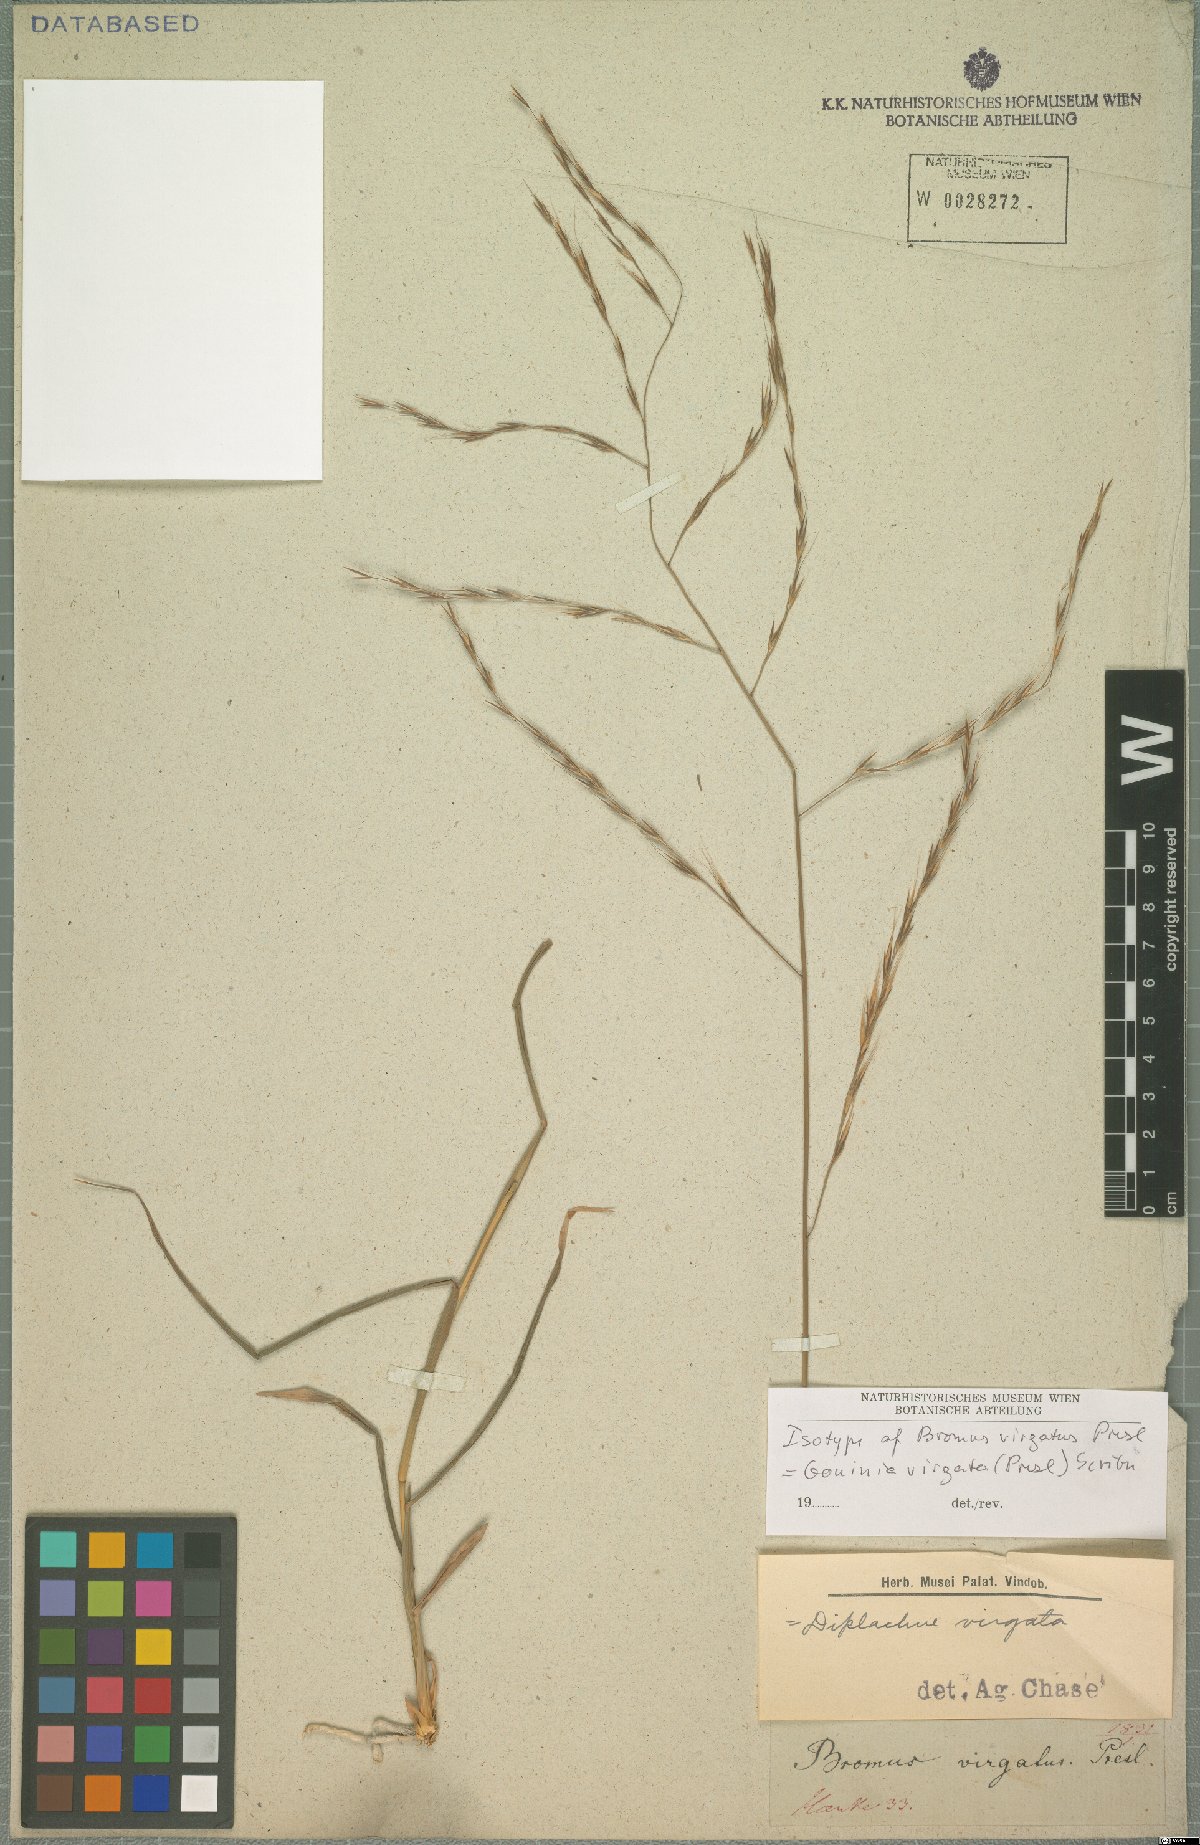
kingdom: Plantae
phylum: Tracheophyta
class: Liliopsida
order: Poales
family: Poaceae
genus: Gouinia
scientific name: Gouinia virgata
